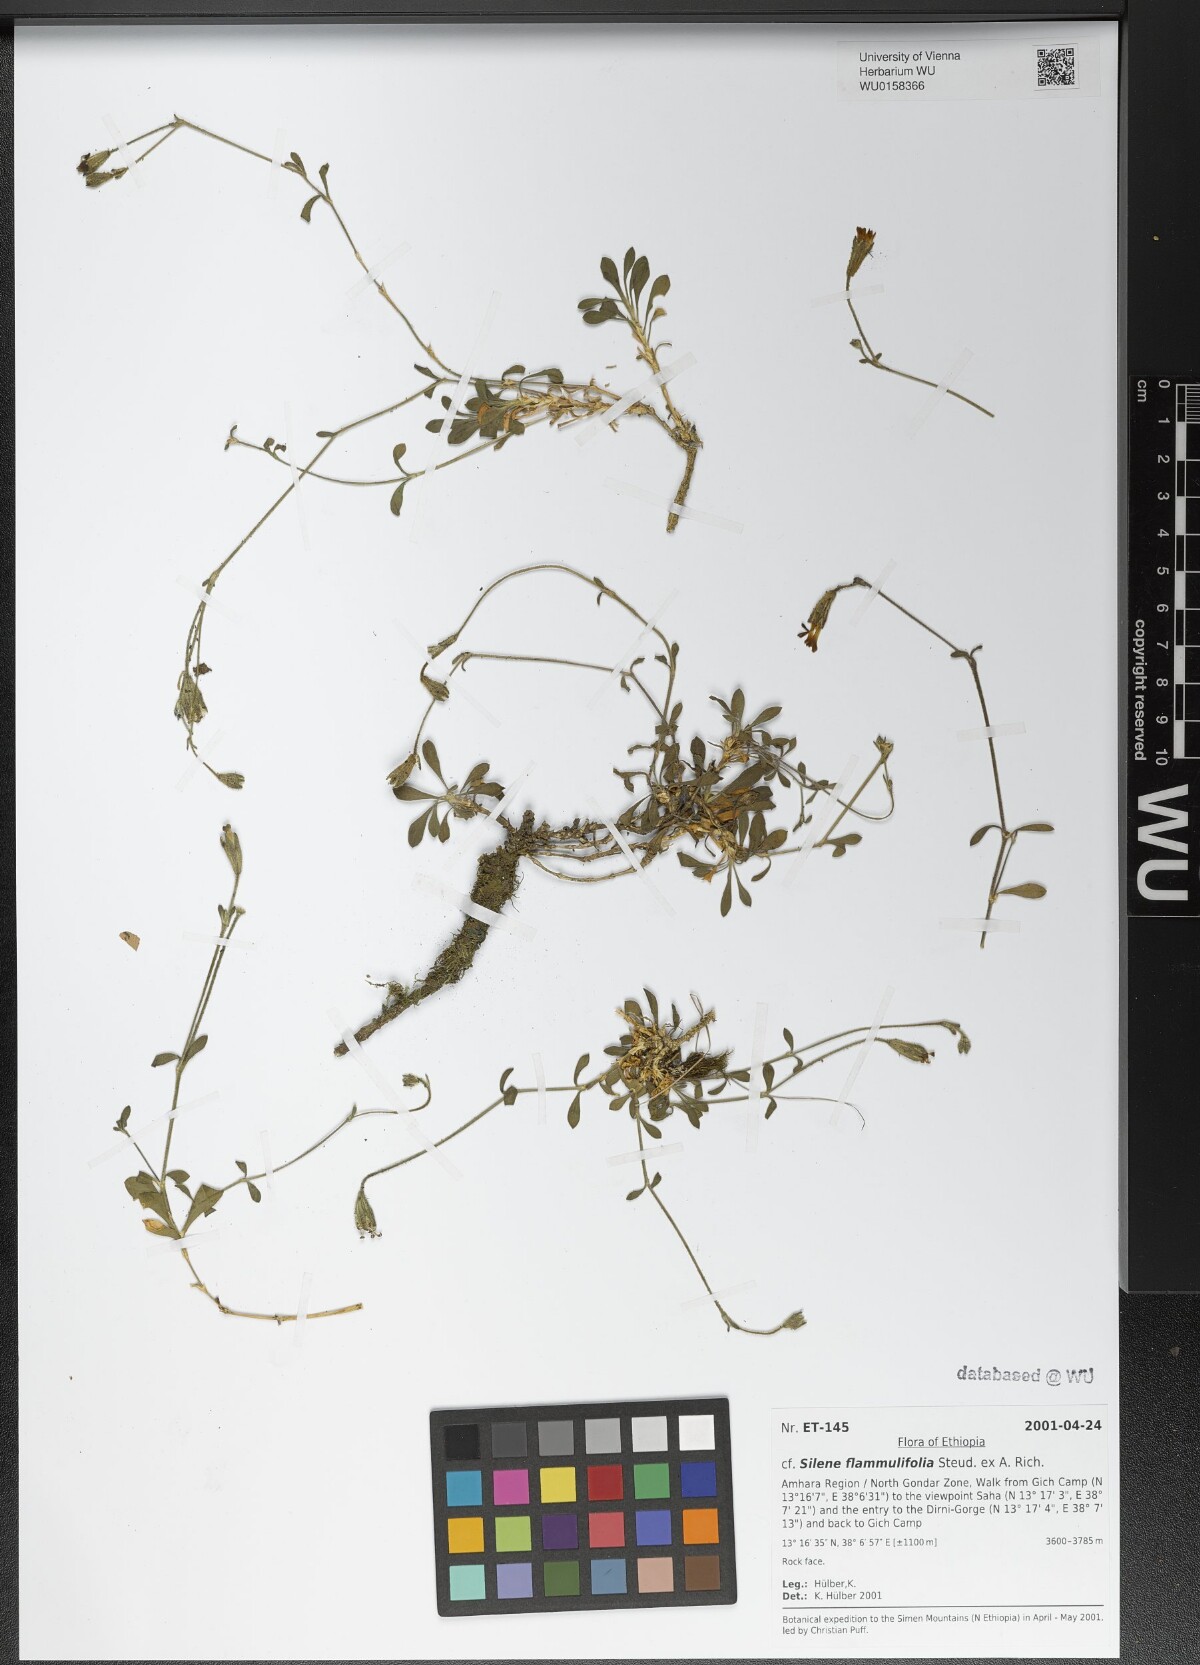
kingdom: Plantae
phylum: Tracheophyta
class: Magnoliopsida
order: Caryophyllales
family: Caryophyllaceae
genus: Silene
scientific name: Silene flammulifolia
